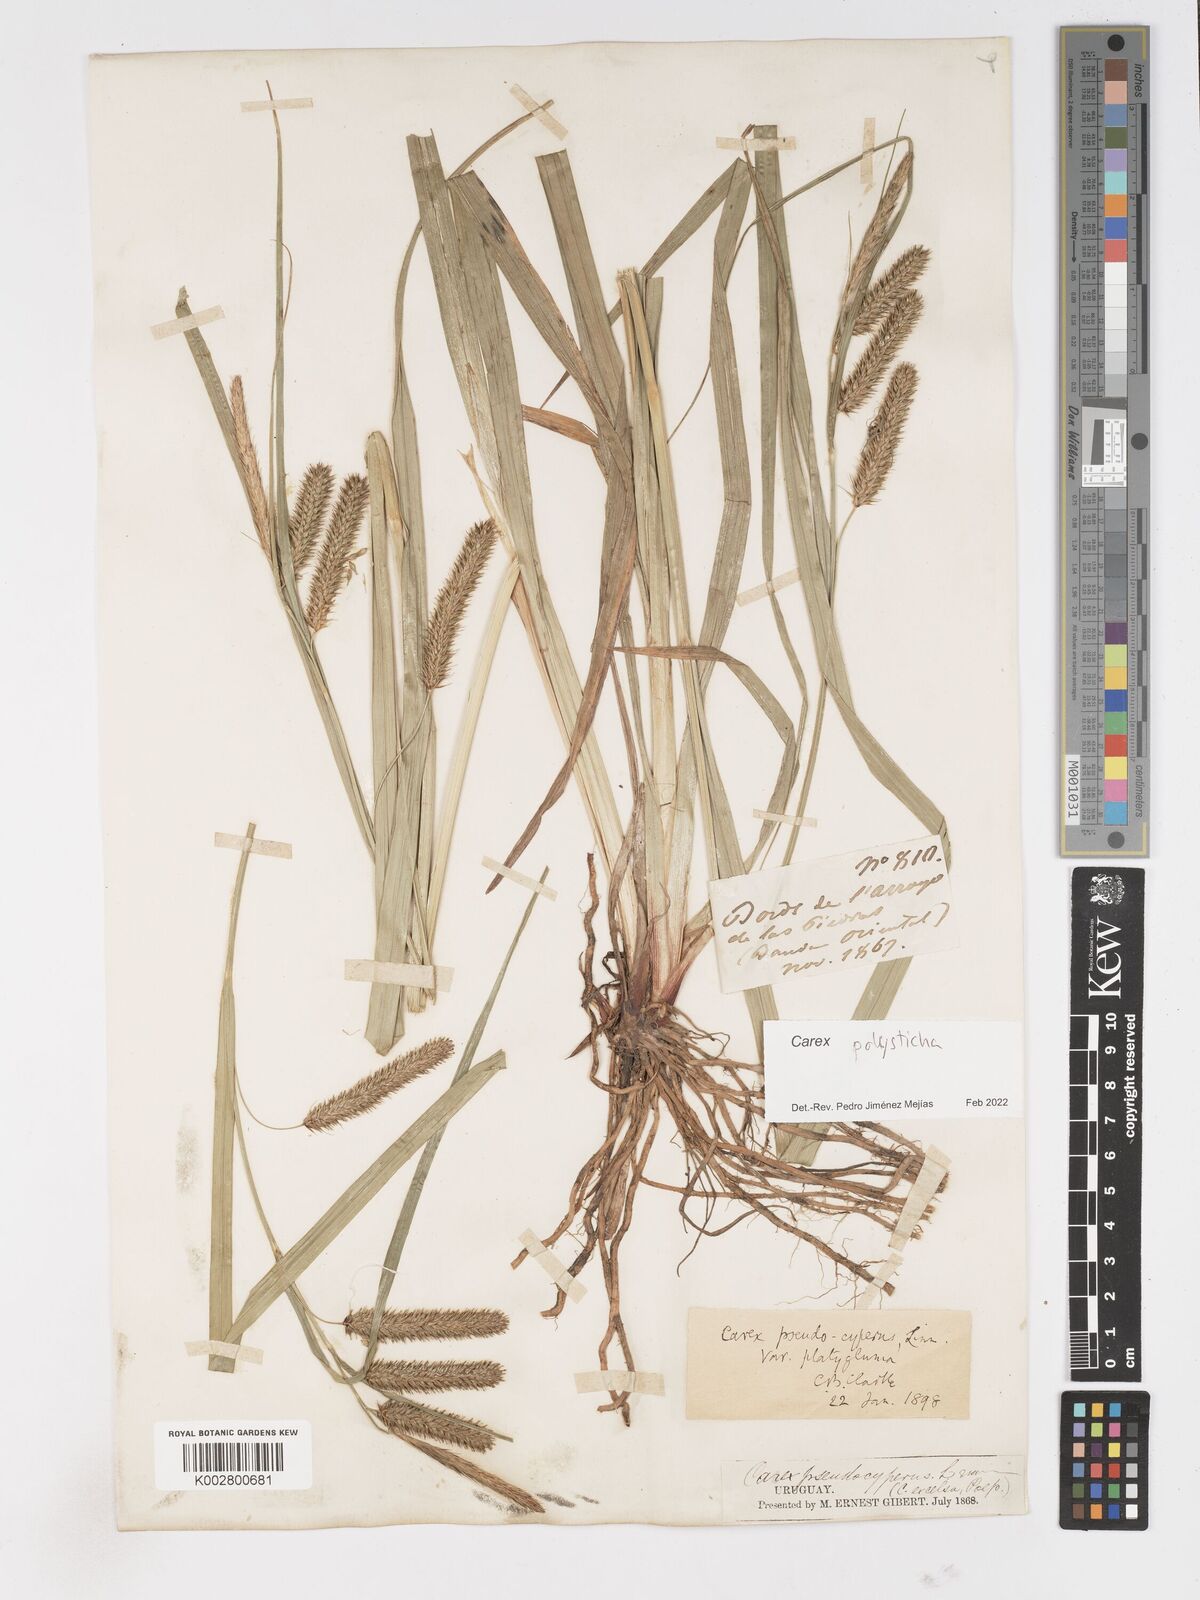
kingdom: Plantae
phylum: Tracheophyta
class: Liliopsida
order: Poales
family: Cyperaceae
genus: Carex
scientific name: Carex excelsa
